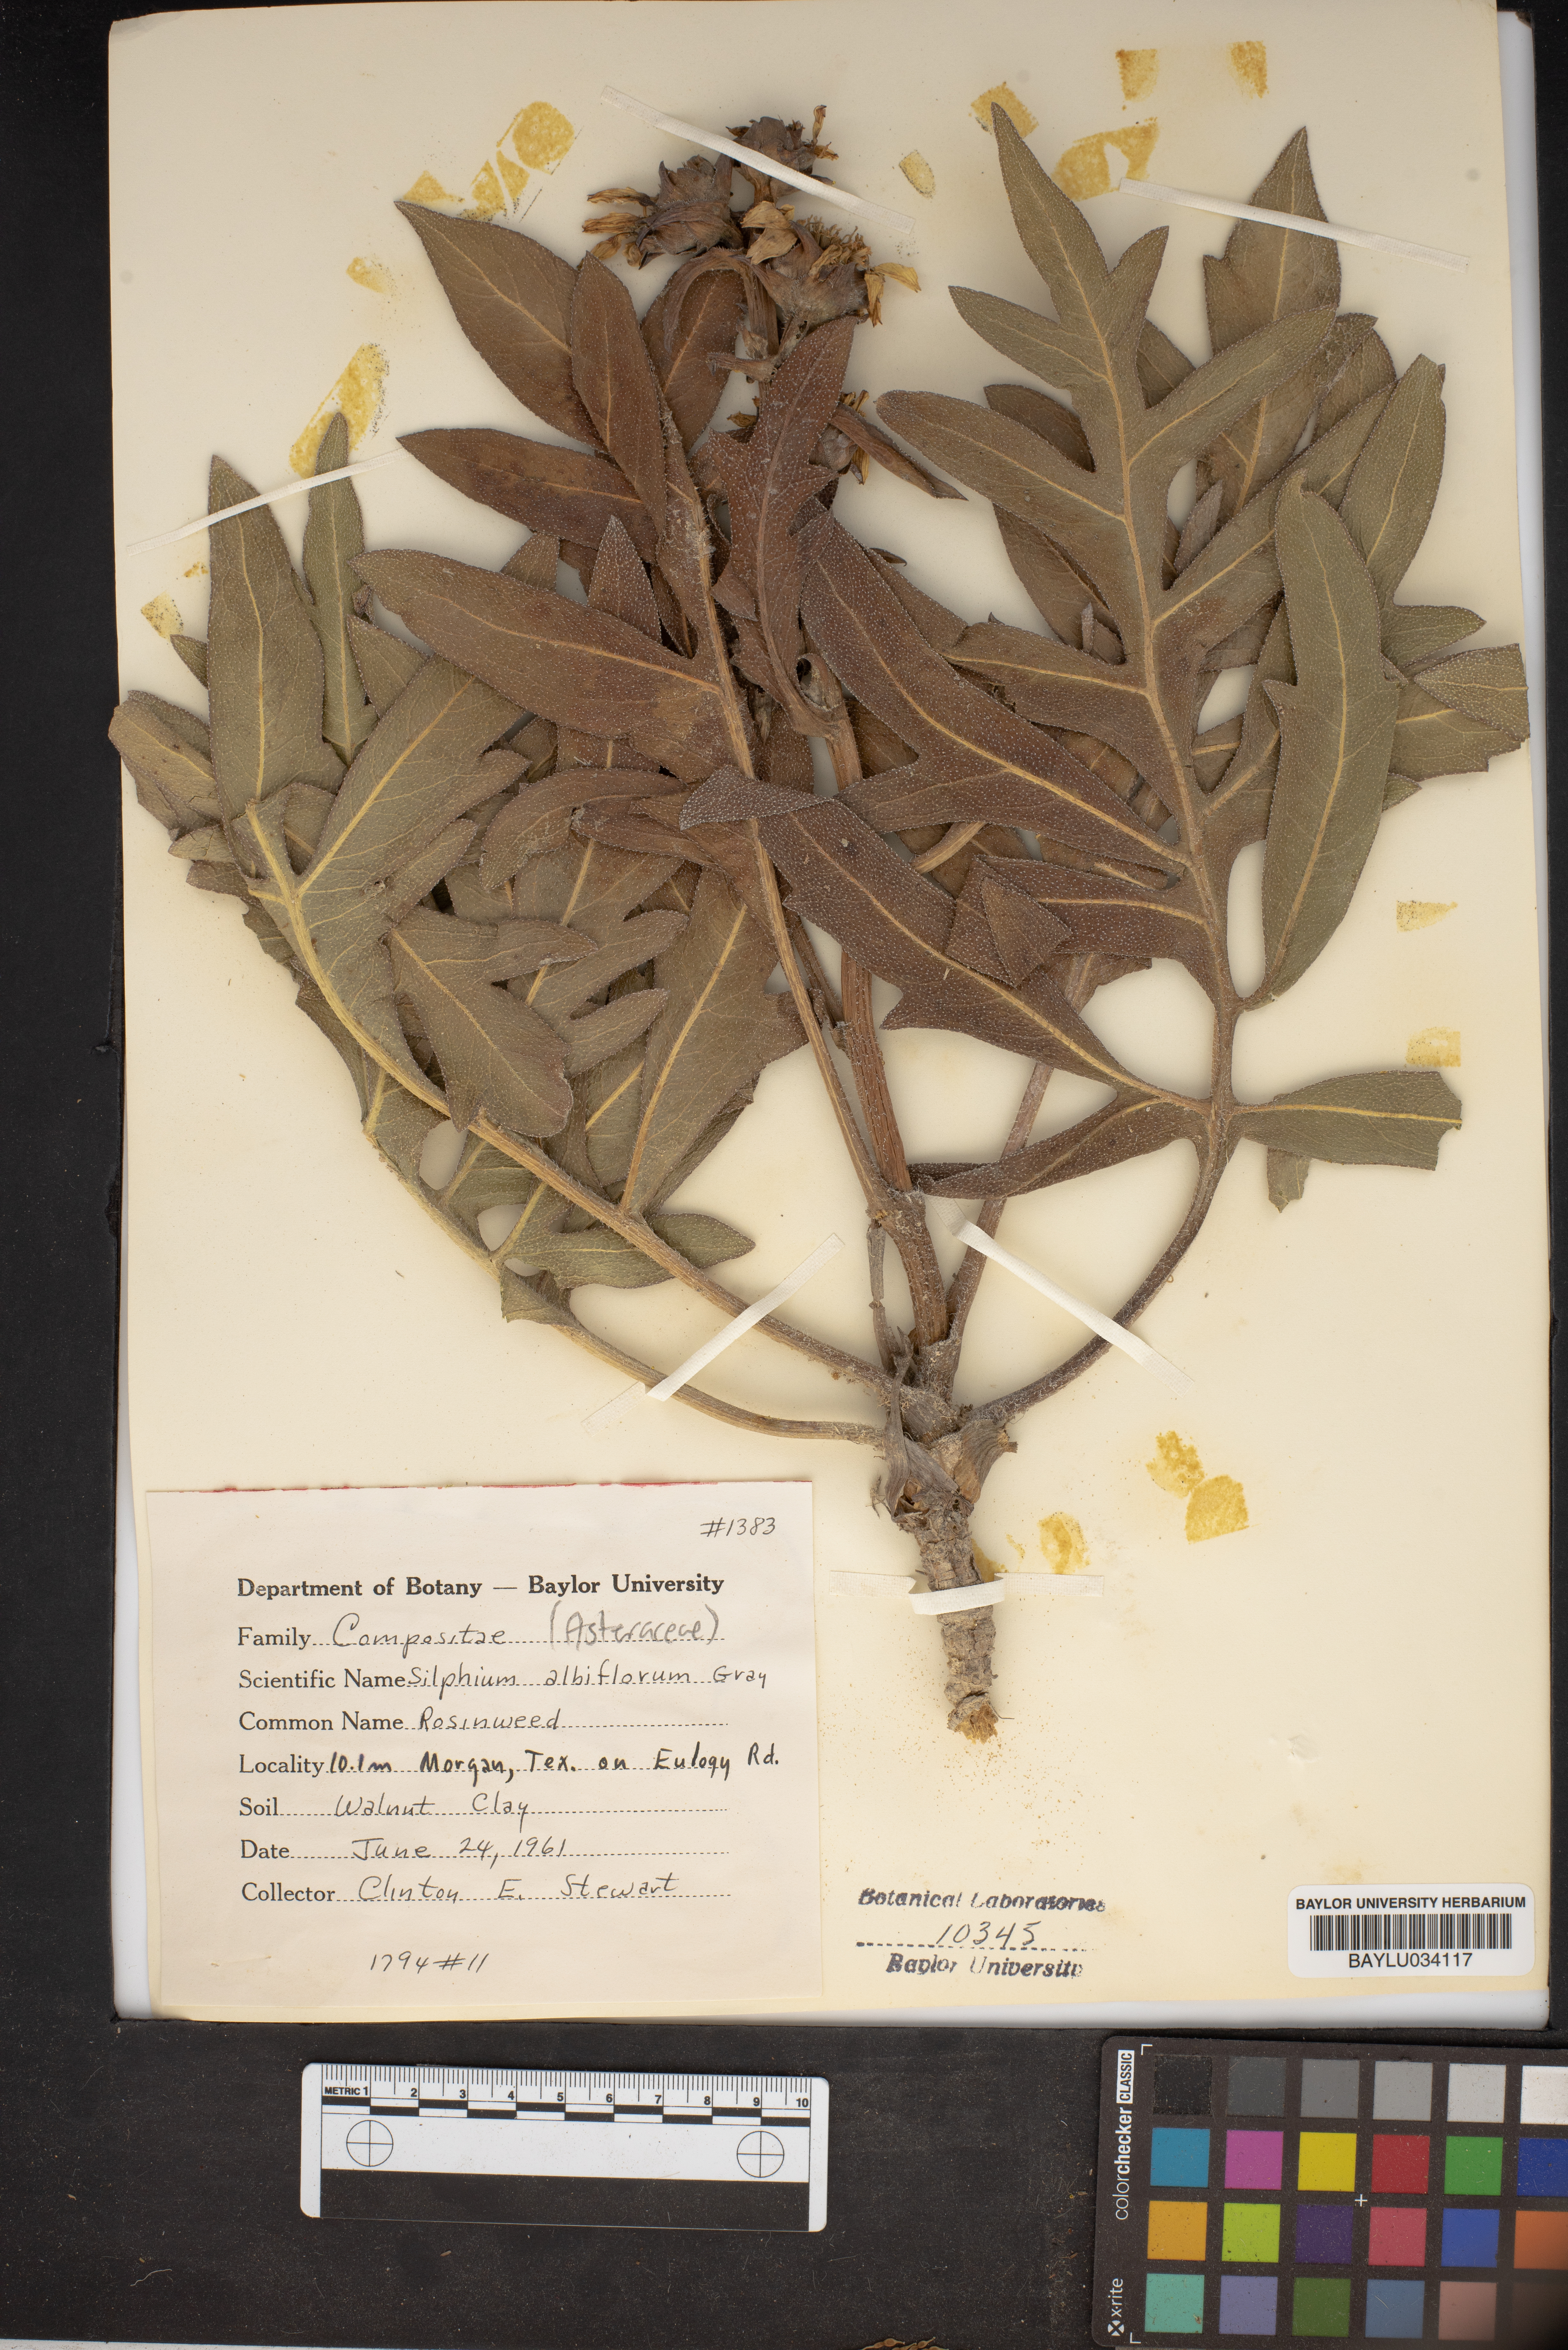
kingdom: Plantae
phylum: Tracheophyta
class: Magnoliopsida
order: Asterales
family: Asteraceae
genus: Silphium
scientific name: Silphium albiflorum
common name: White rosinweed
